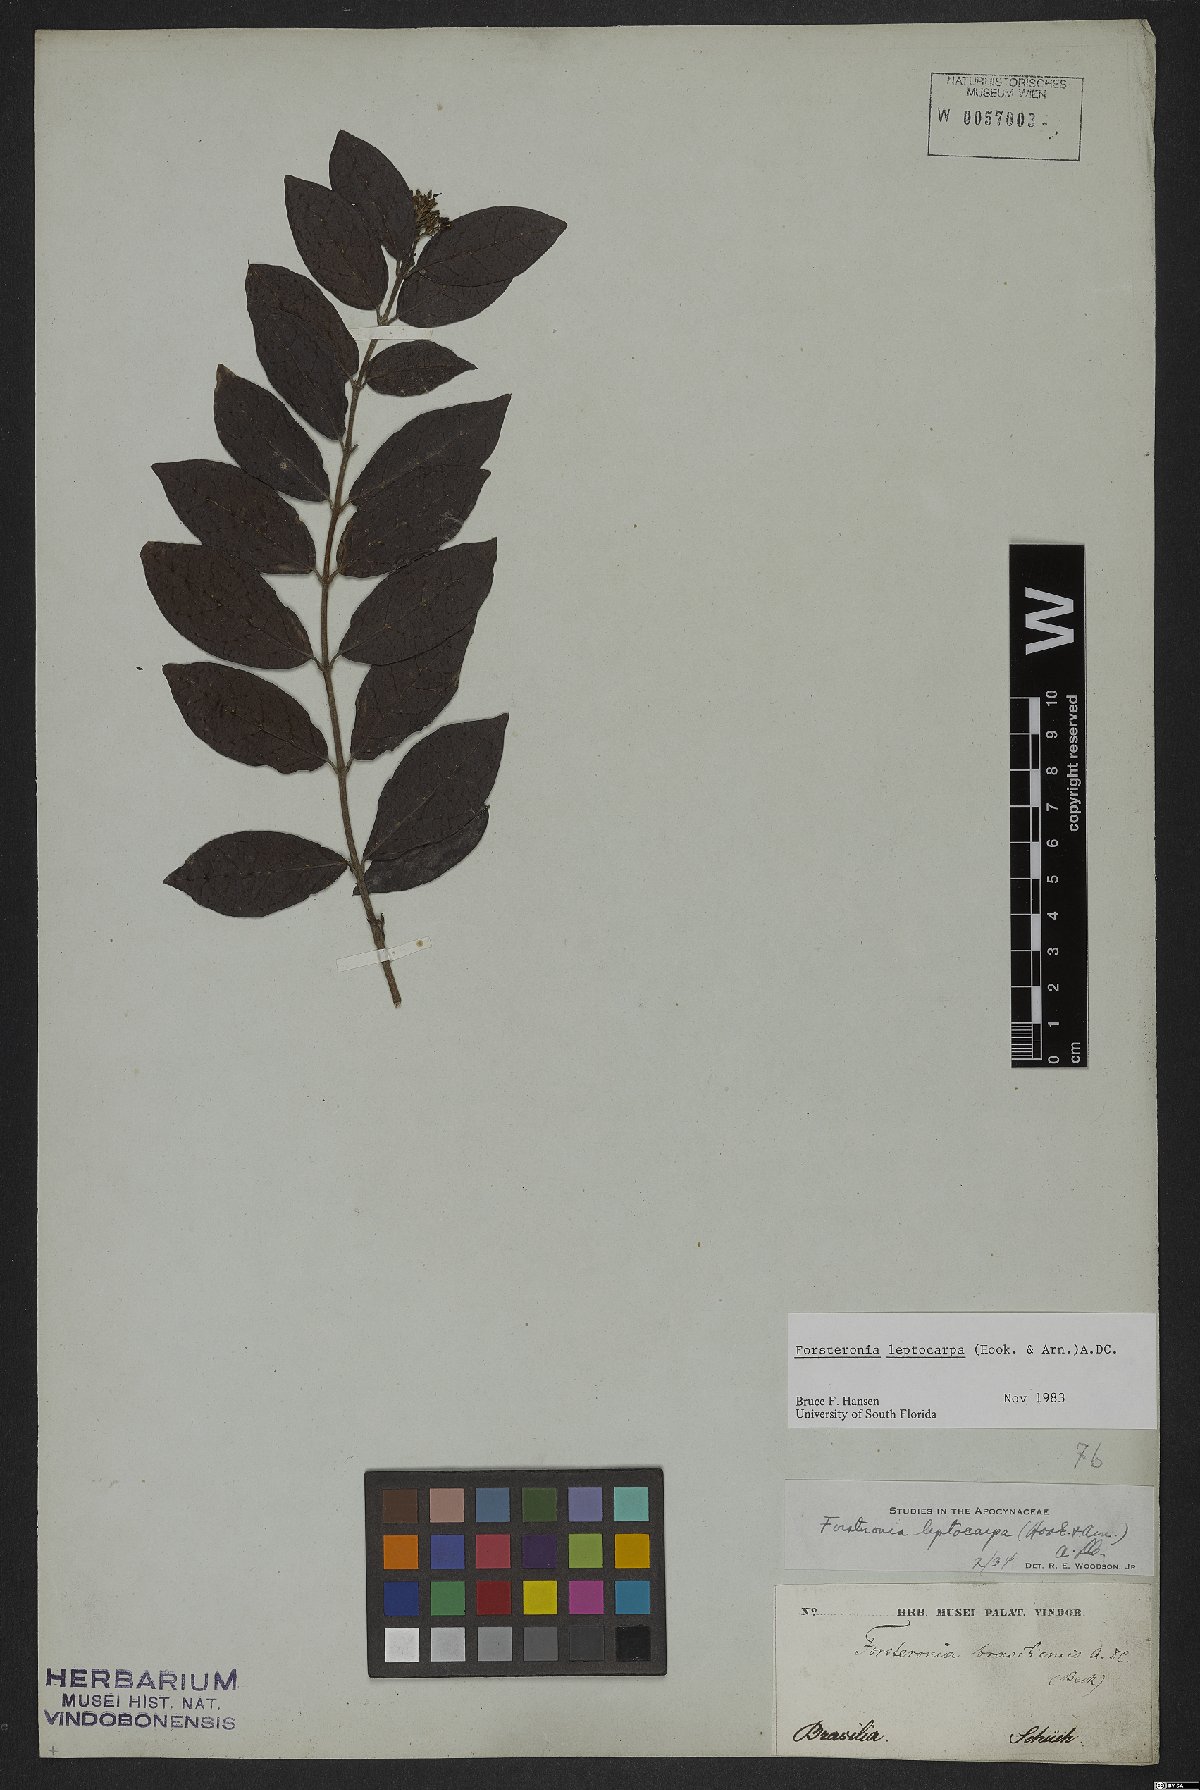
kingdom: Plantae
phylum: Tracheophyta
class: Magnoliopsida
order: Gentianales
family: Apocynaceae
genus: Forsteronia
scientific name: Forsteronia leptocarpa
